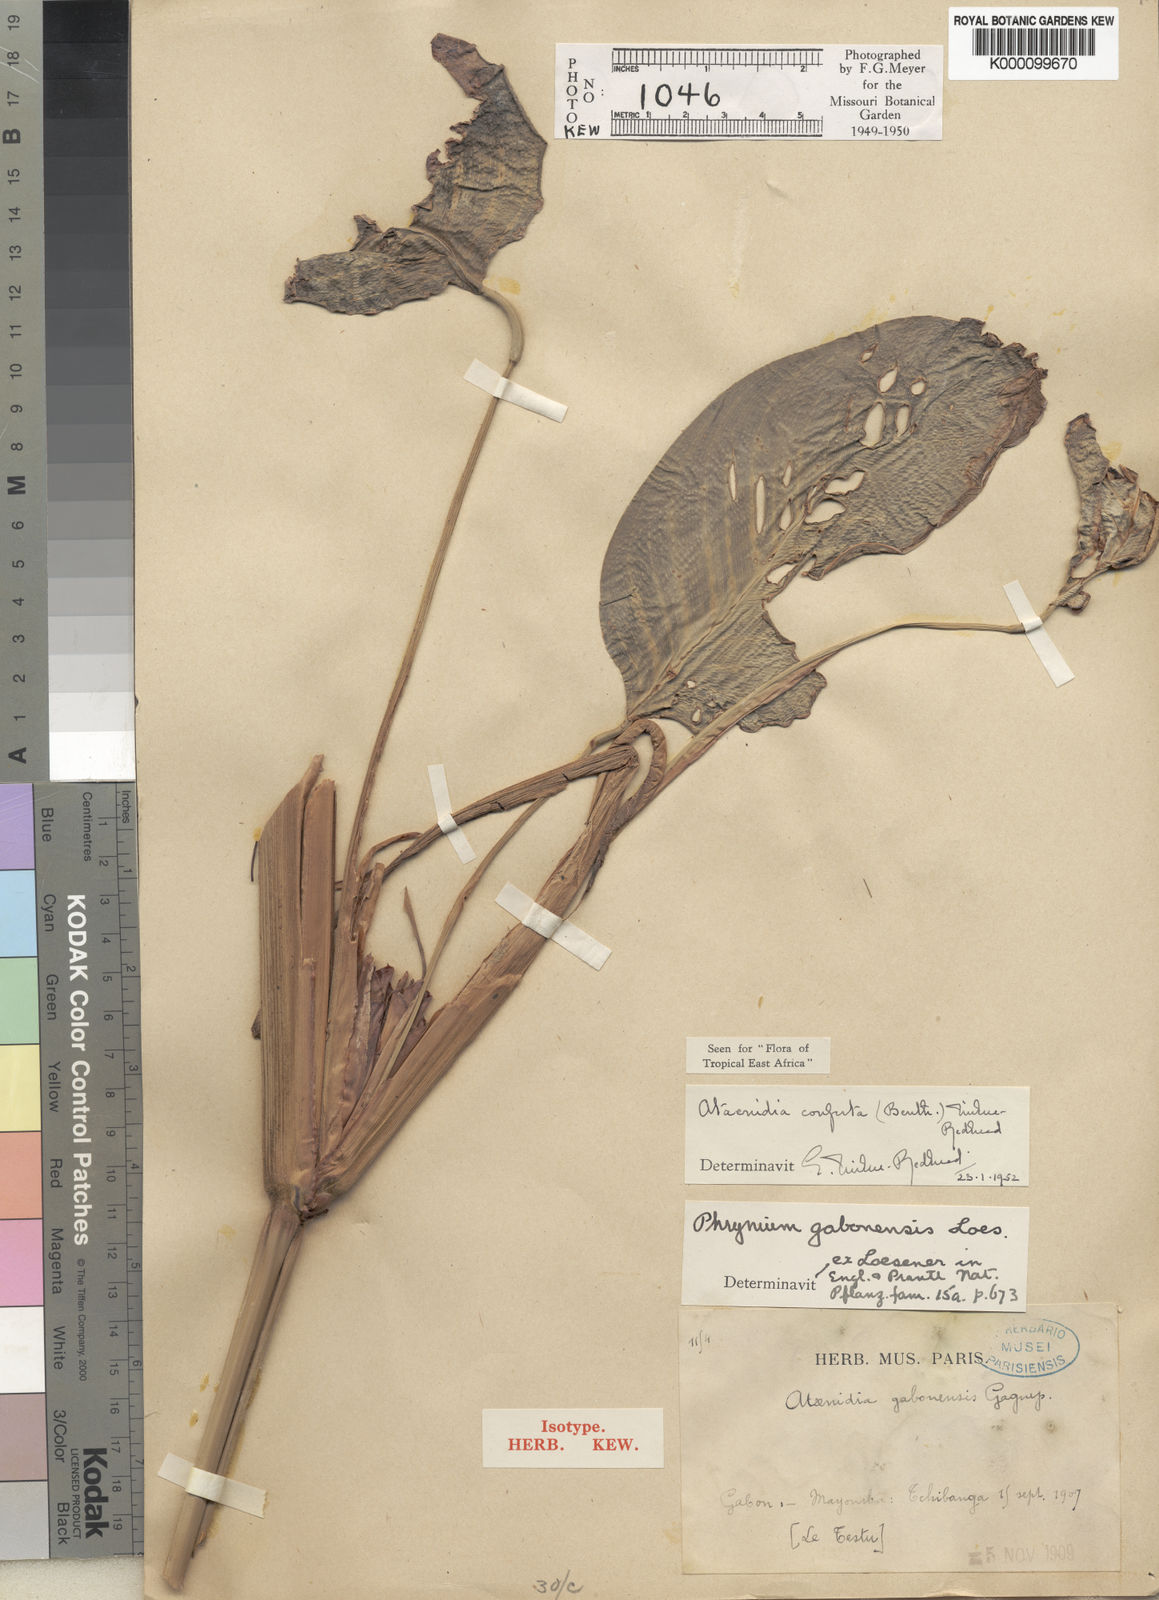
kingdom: Plantae
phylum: Tracheophyta
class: Liliopsida
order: Zingiberales
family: Marantaceae
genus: Marantochloa
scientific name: Marantochloa conferta
